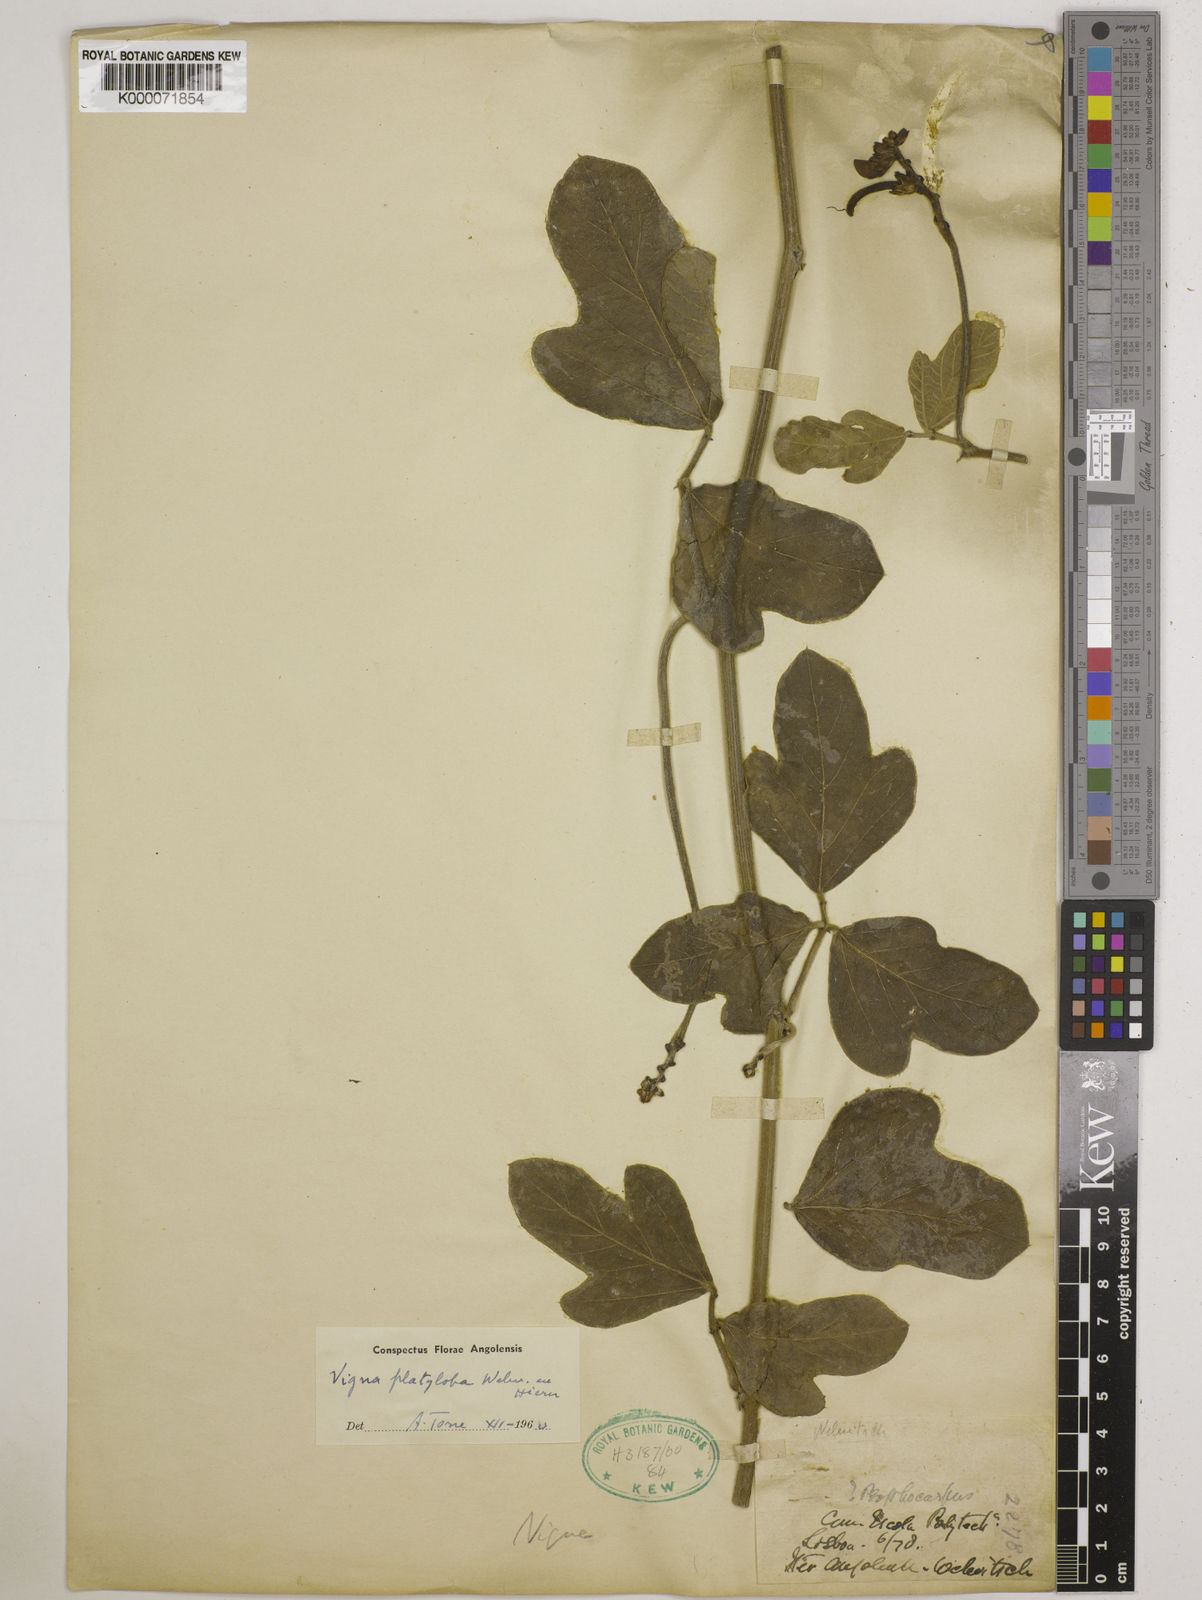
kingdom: Plantae
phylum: Tracheophyta
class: Magnoliopsida
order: Fabales
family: Fabaceae
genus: Vigna
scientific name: Vigna platyloba
